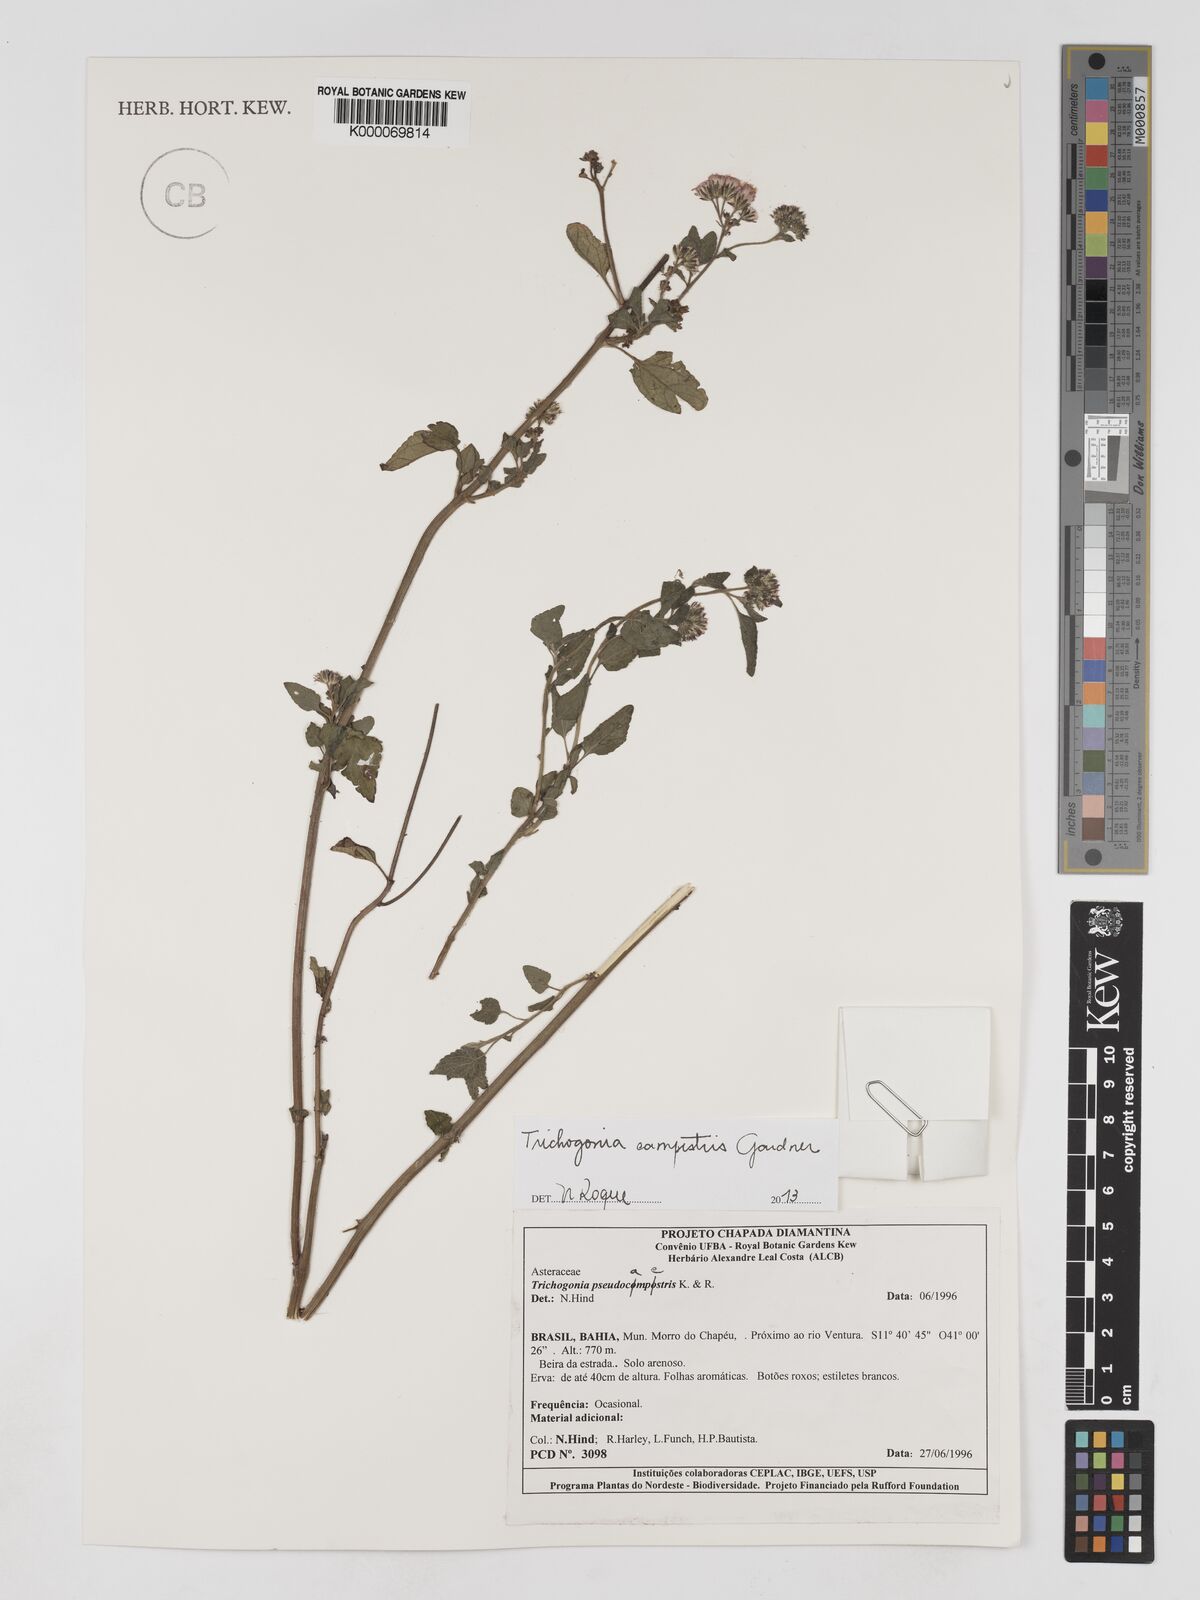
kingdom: Plantae
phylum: Tracheophyta
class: Magnoliopsida
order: Asterales
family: Asteraceae
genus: Trichogonia
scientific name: Trichogonia campestris
